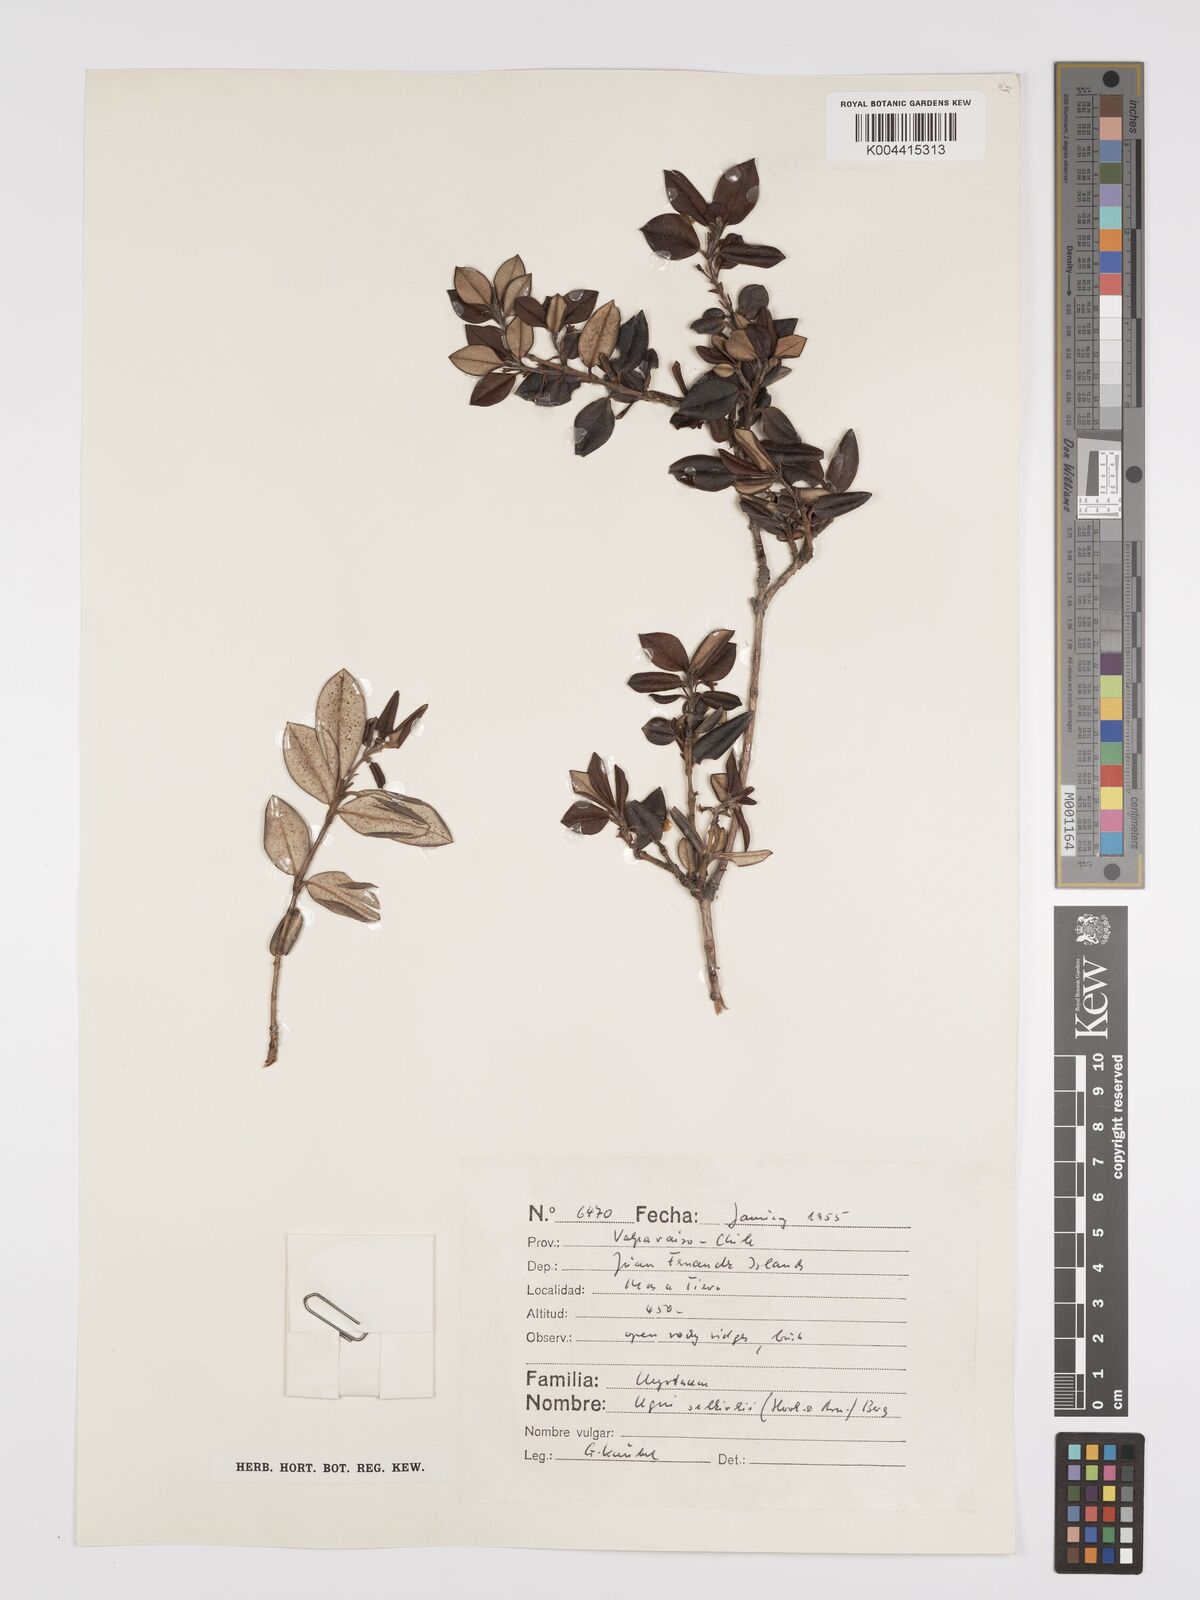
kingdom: Plantae
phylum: Tracheophyta
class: Magnoliopsida
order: Myrtales
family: Myrtaceae
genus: Ugni
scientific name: Ugni selkirkii
